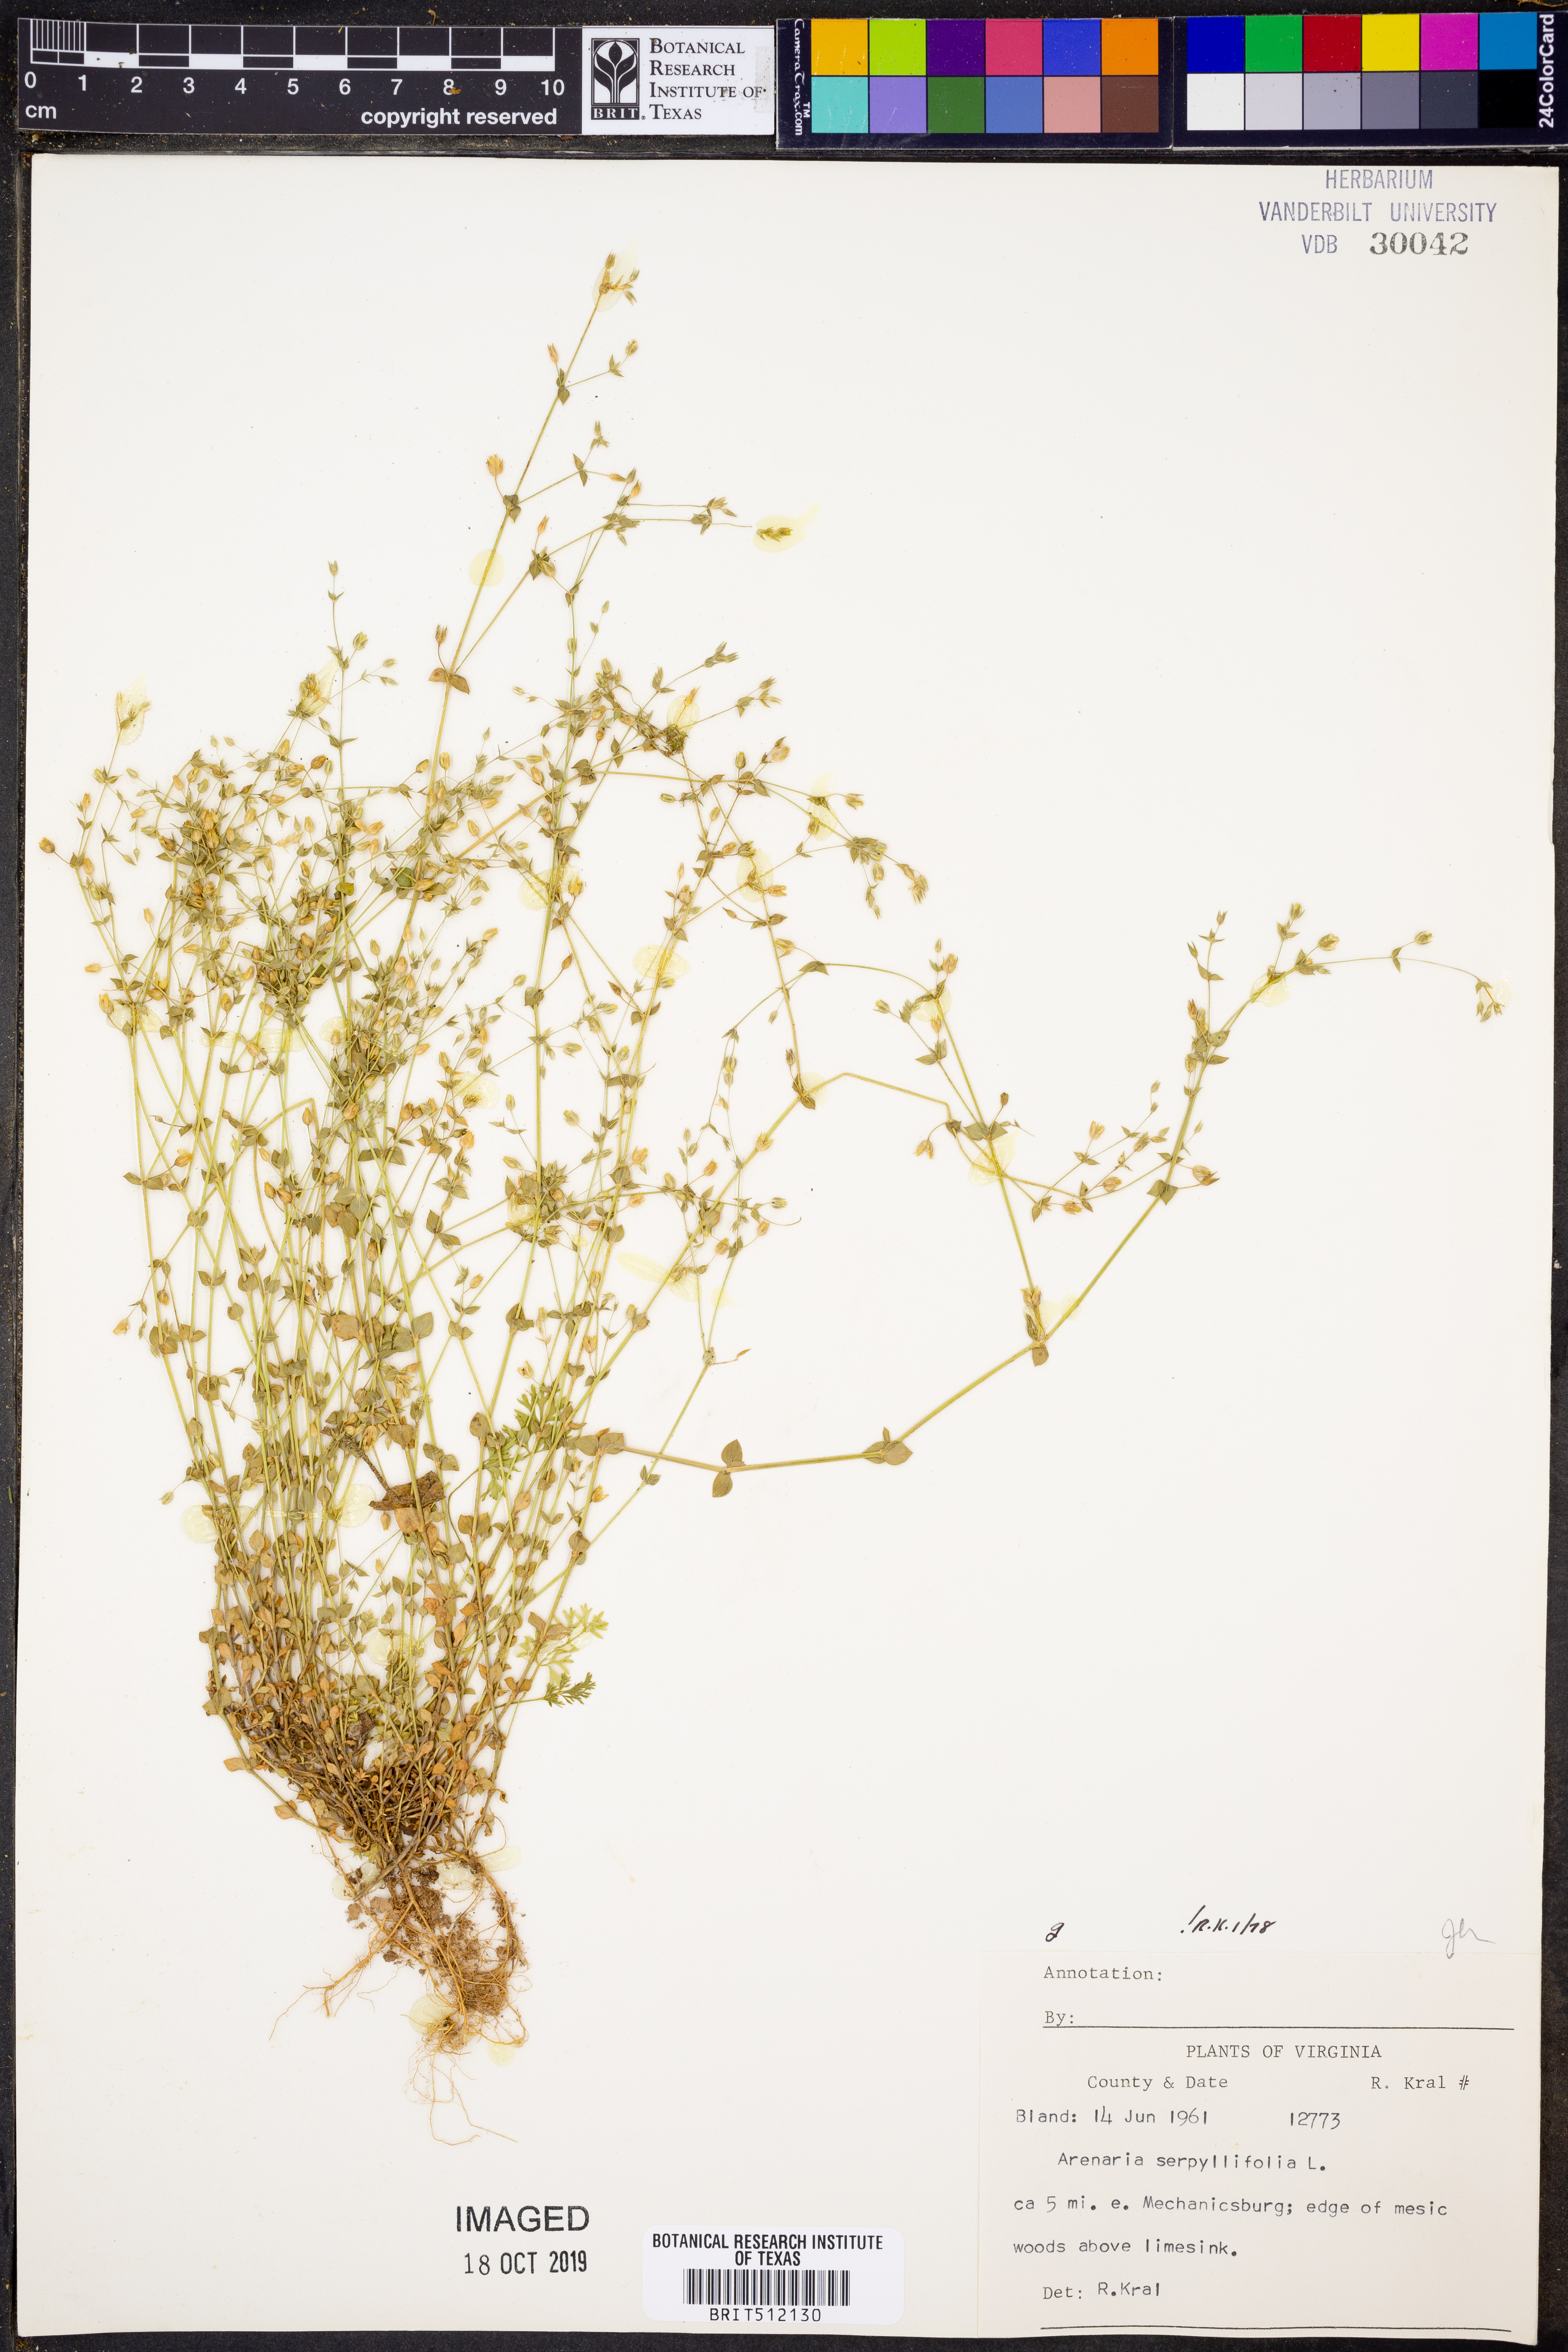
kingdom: Plantae
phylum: Tracheophyta
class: Magnoliopsida
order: Caryophyllales
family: Caryophyllaceae
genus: Arenaria
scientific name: Arenaria serpyllifolia
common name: Thyme-leaved sandwort
